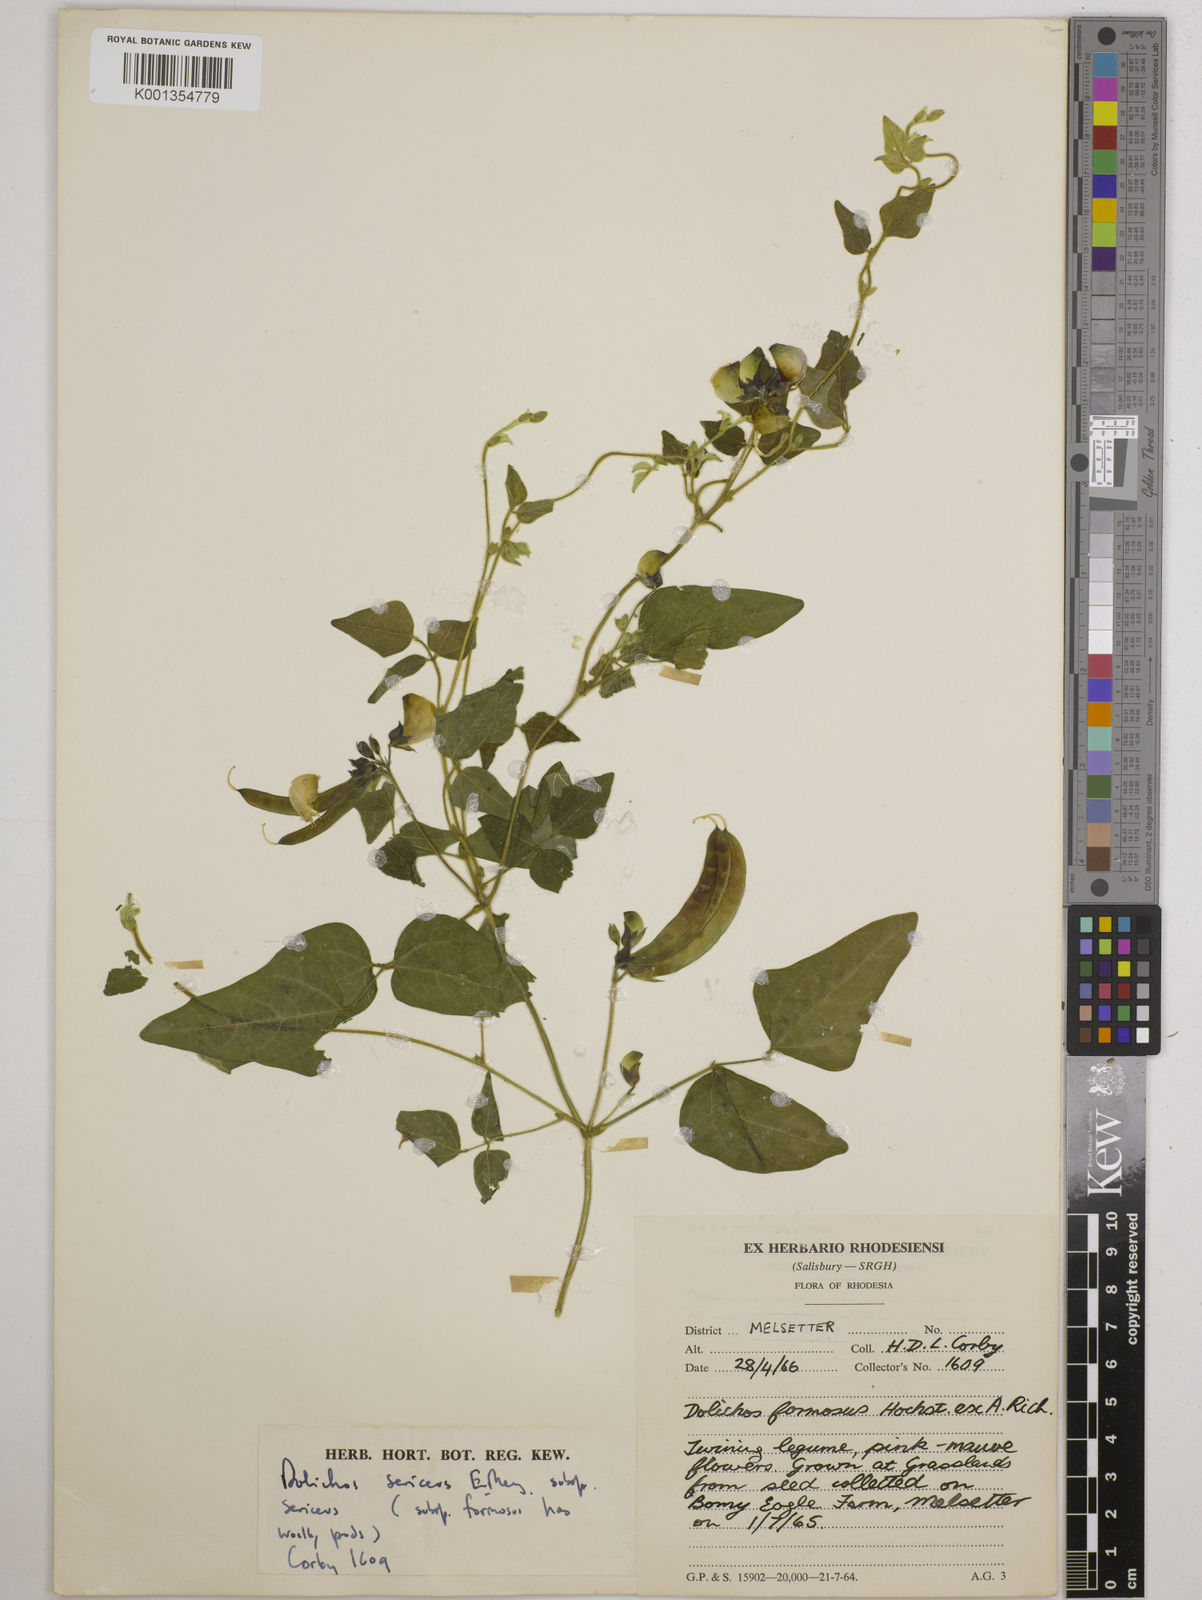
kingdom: Plantae
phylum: Tracheophyta
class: Magnoliopsida
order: Fabales
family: Fabaceae
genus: Dolichos
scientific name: Dolichos
